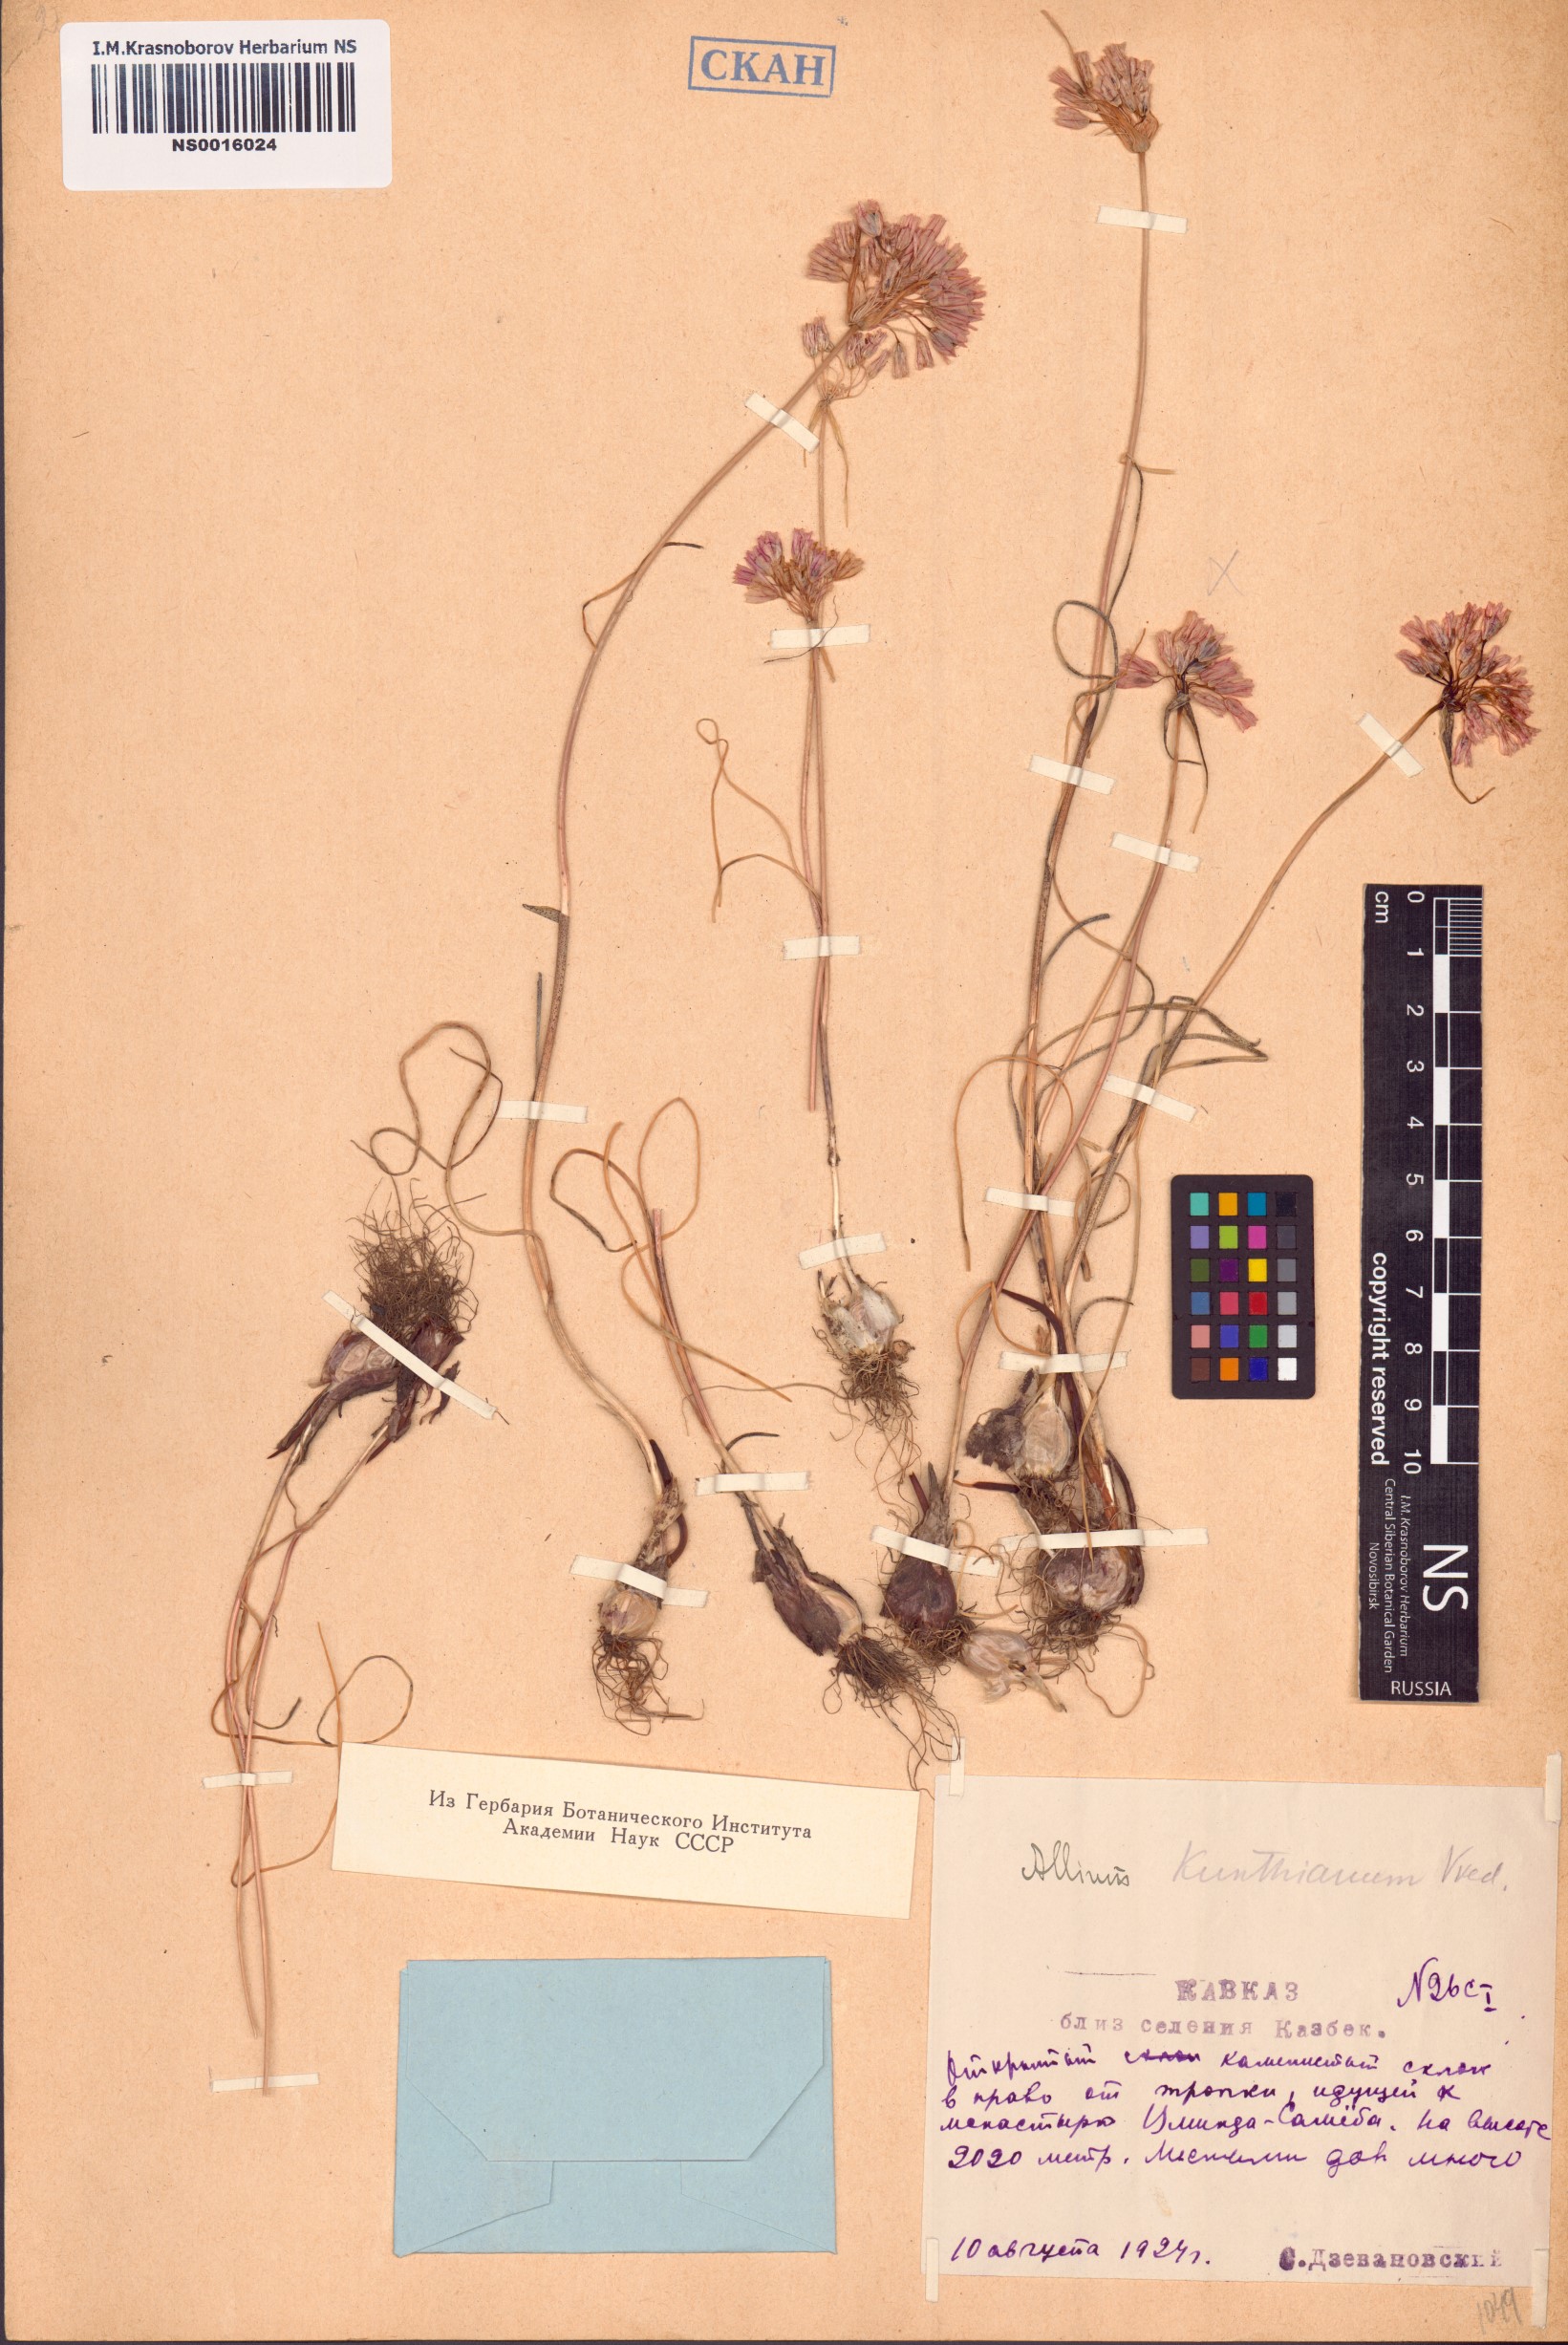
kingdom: Plantae
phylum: Tracheophyta
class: Liliopsida
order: Asparagales
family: Amaryllidaceae
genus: Allium
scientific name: Allium kunthianum
